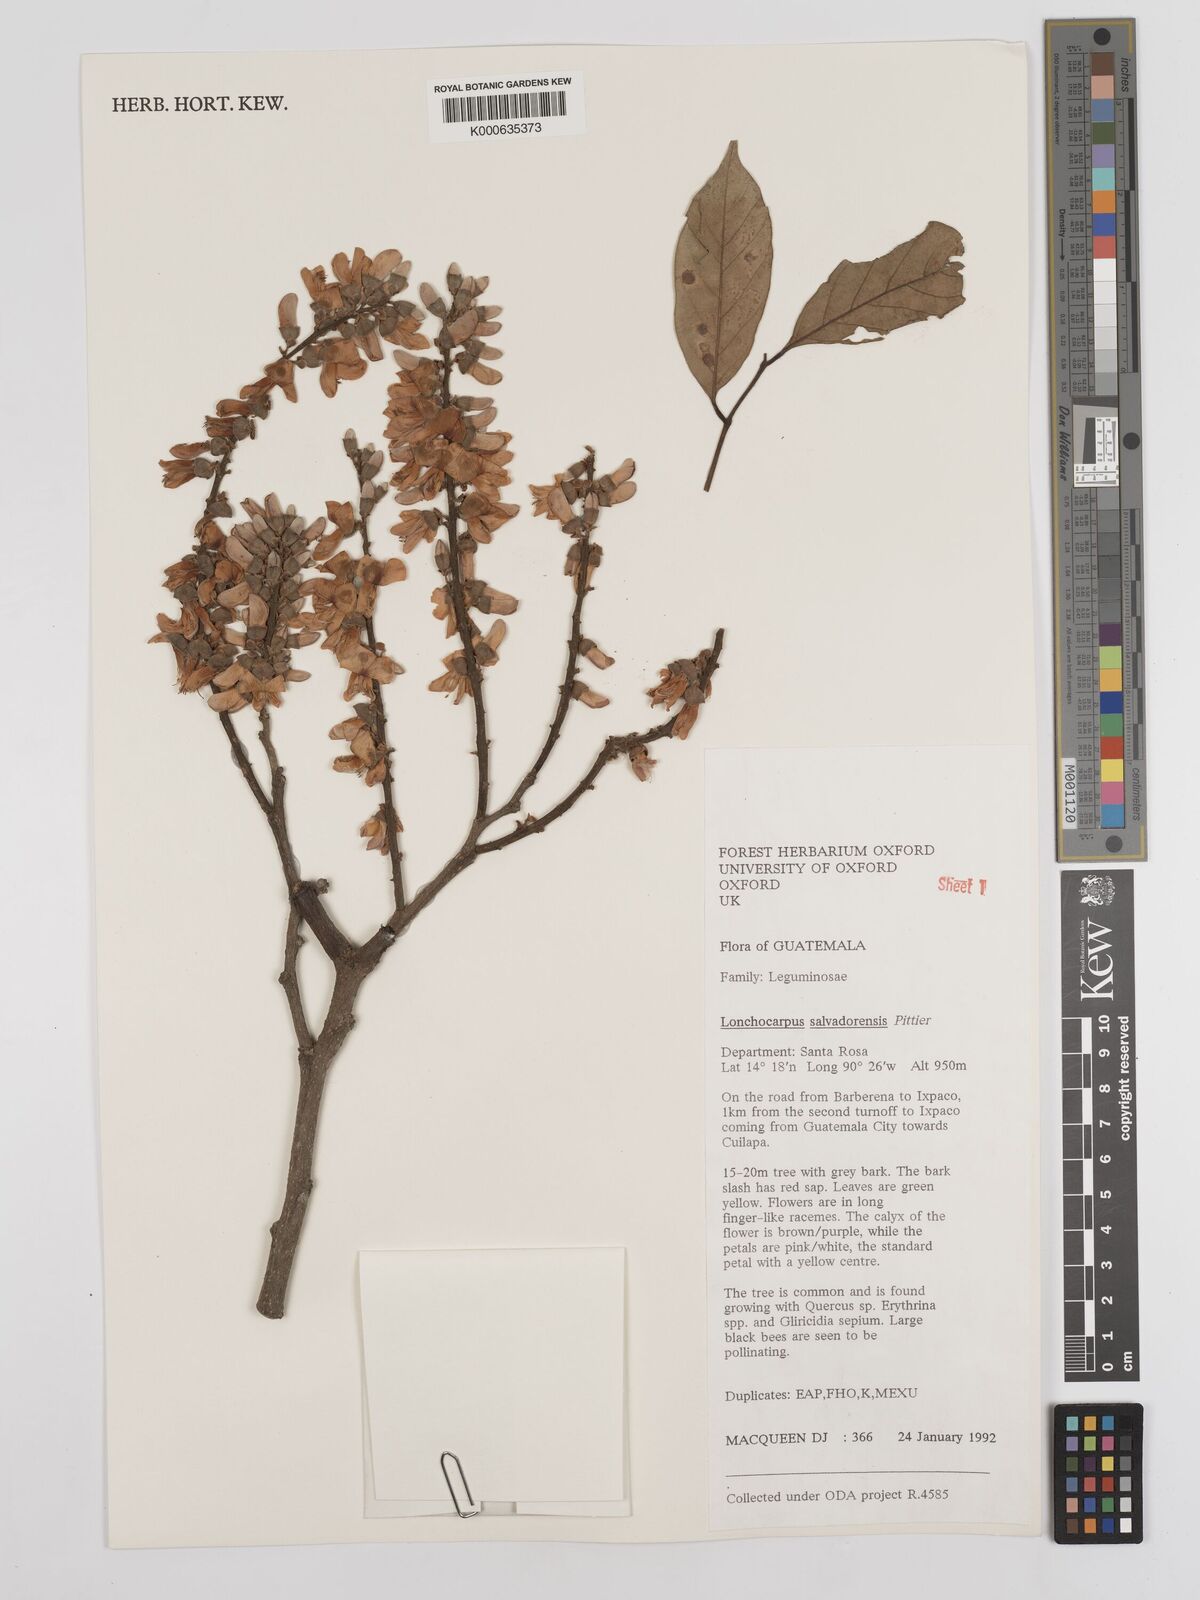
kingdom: Plantae
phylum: Tracheophyta
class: Magnoliopsida
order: Fabales
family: Fabaceae
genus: Lonchocarpus
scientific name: Lonchocarpus salvadorensis
